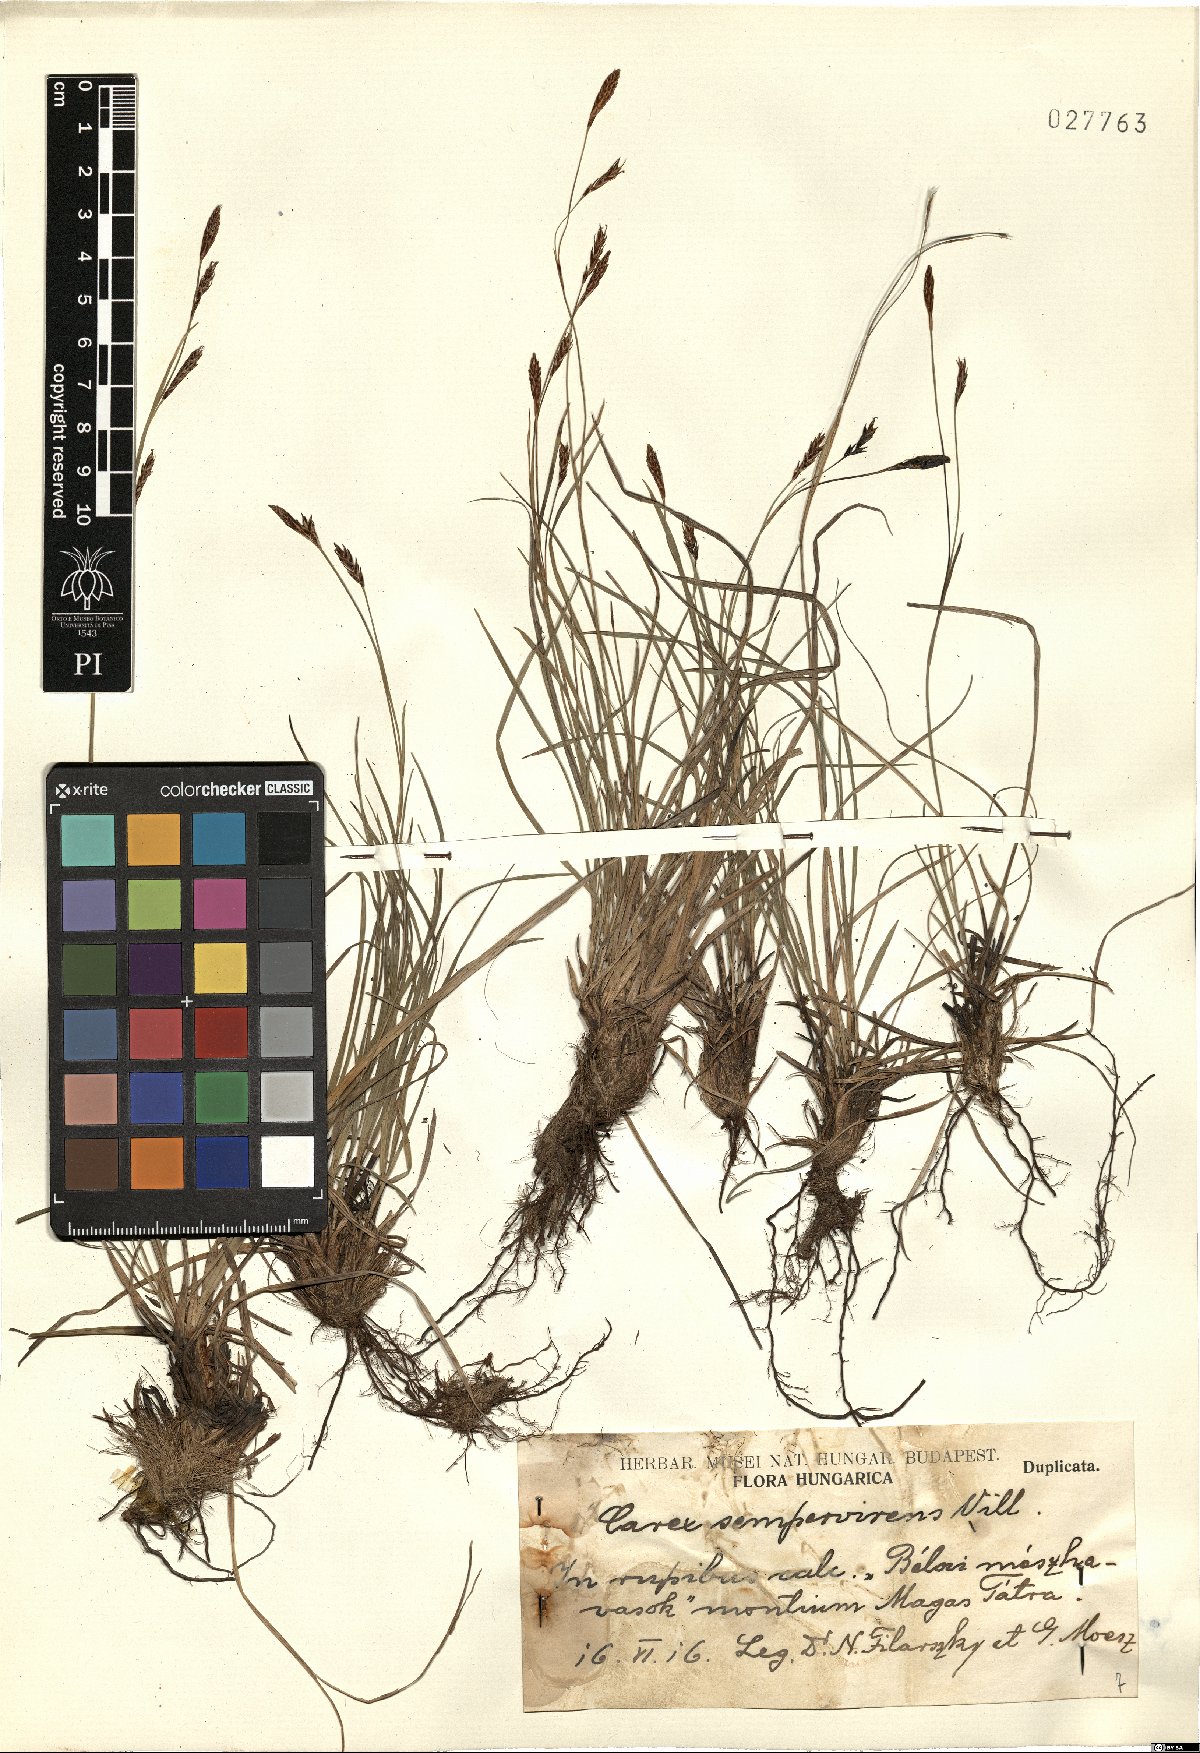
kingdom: Plantae
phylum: Tracheophyta
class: Liliopsida
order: Poales
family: Cyperaceae
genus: Carex
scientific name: Carex sempervirens
